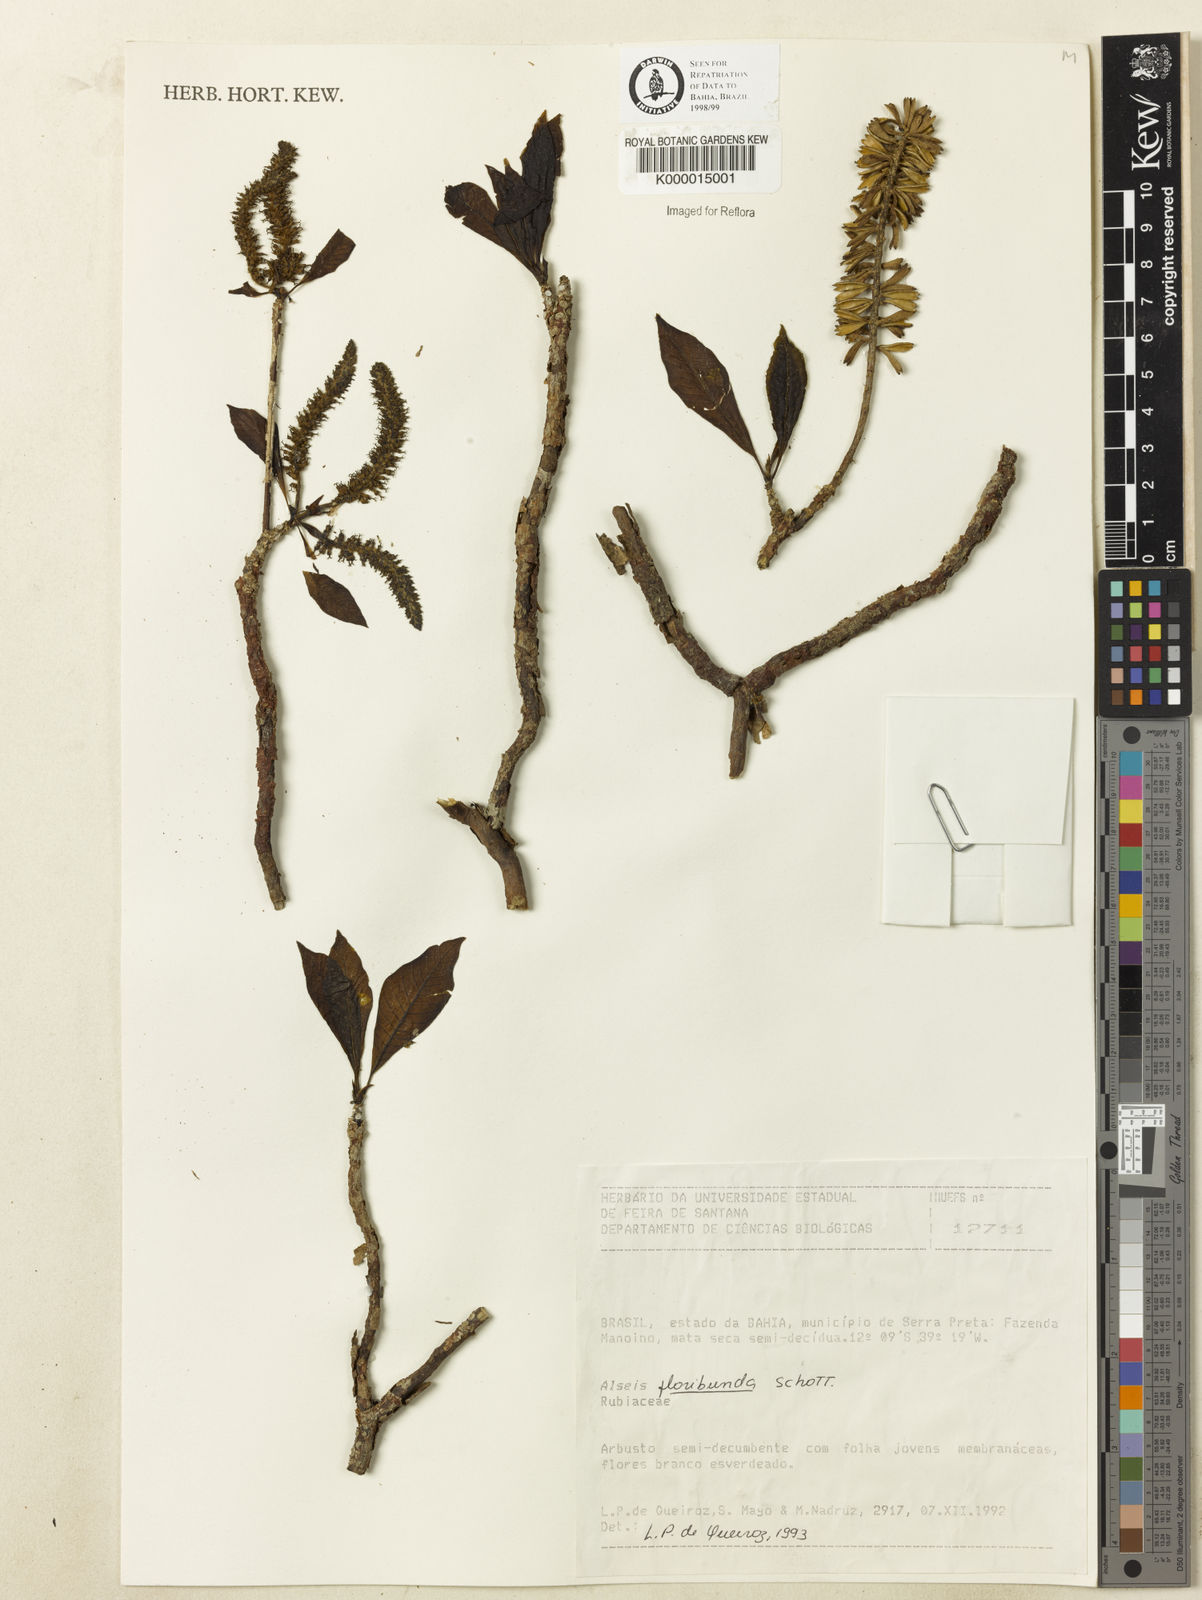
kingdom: Plantae
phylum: Tracheophyta
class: Magnoliopsida
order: Gentianales
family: Rubiaceae
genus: Alseis
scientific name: Alseis floribunda
